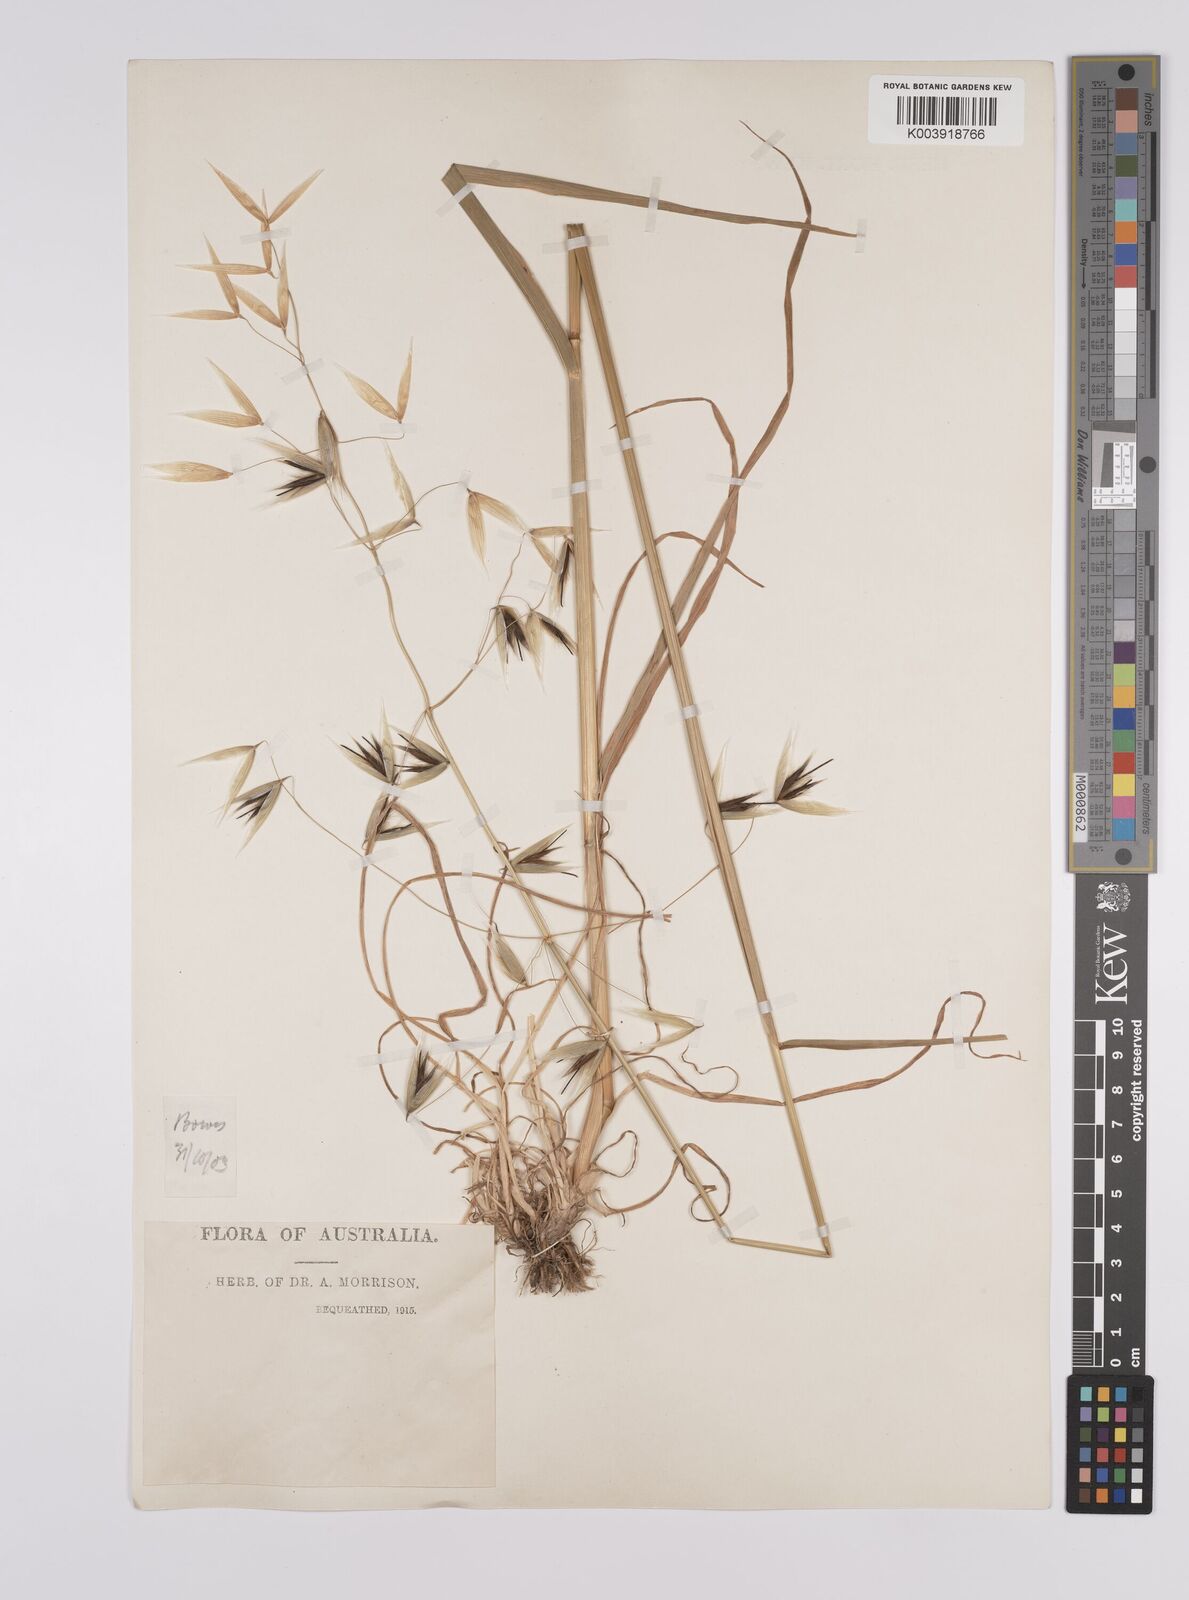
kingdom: Plantae
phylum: Tracheophyta
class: Liliopsida
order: Poales
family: Poaceae
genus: Avena
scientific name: Avena fatua
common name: Wild oat
